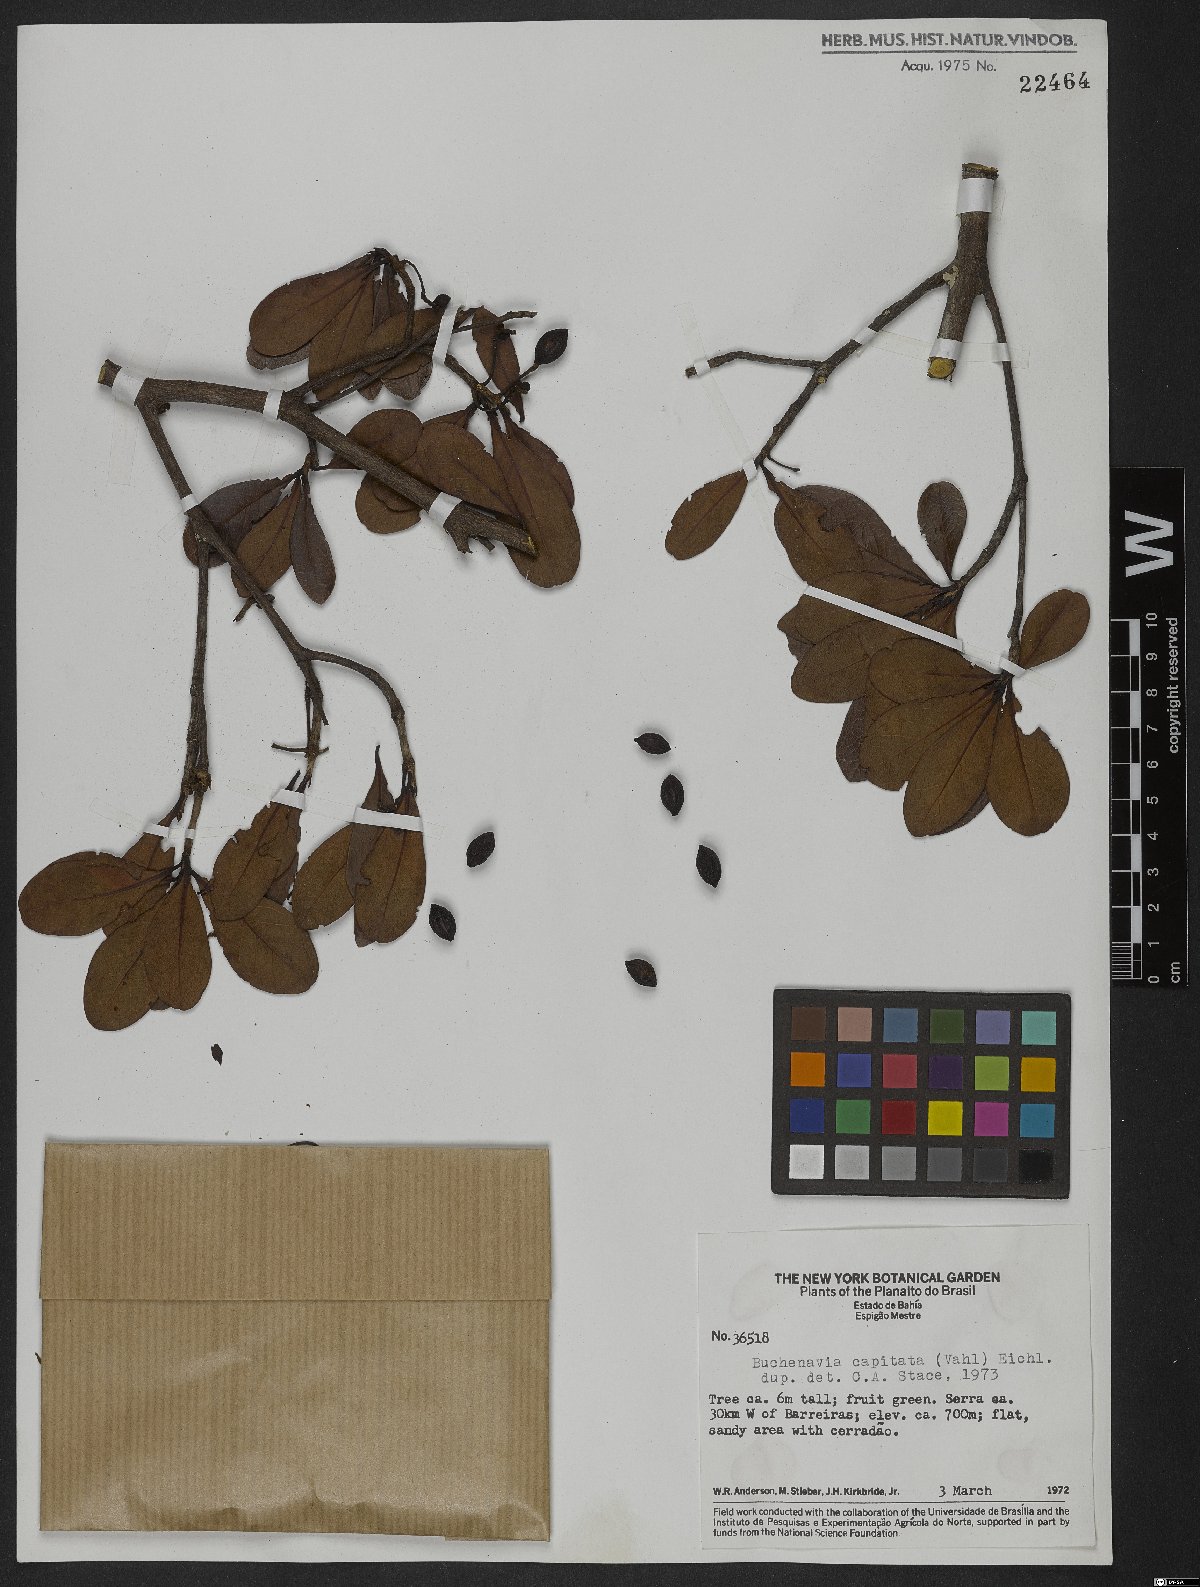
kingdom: Plantae
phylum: Tracheophyta
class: Magnoliopsida
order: Myrtales
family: Combretaceae
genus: Terminalia
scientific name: Terminalia tetraphylla
